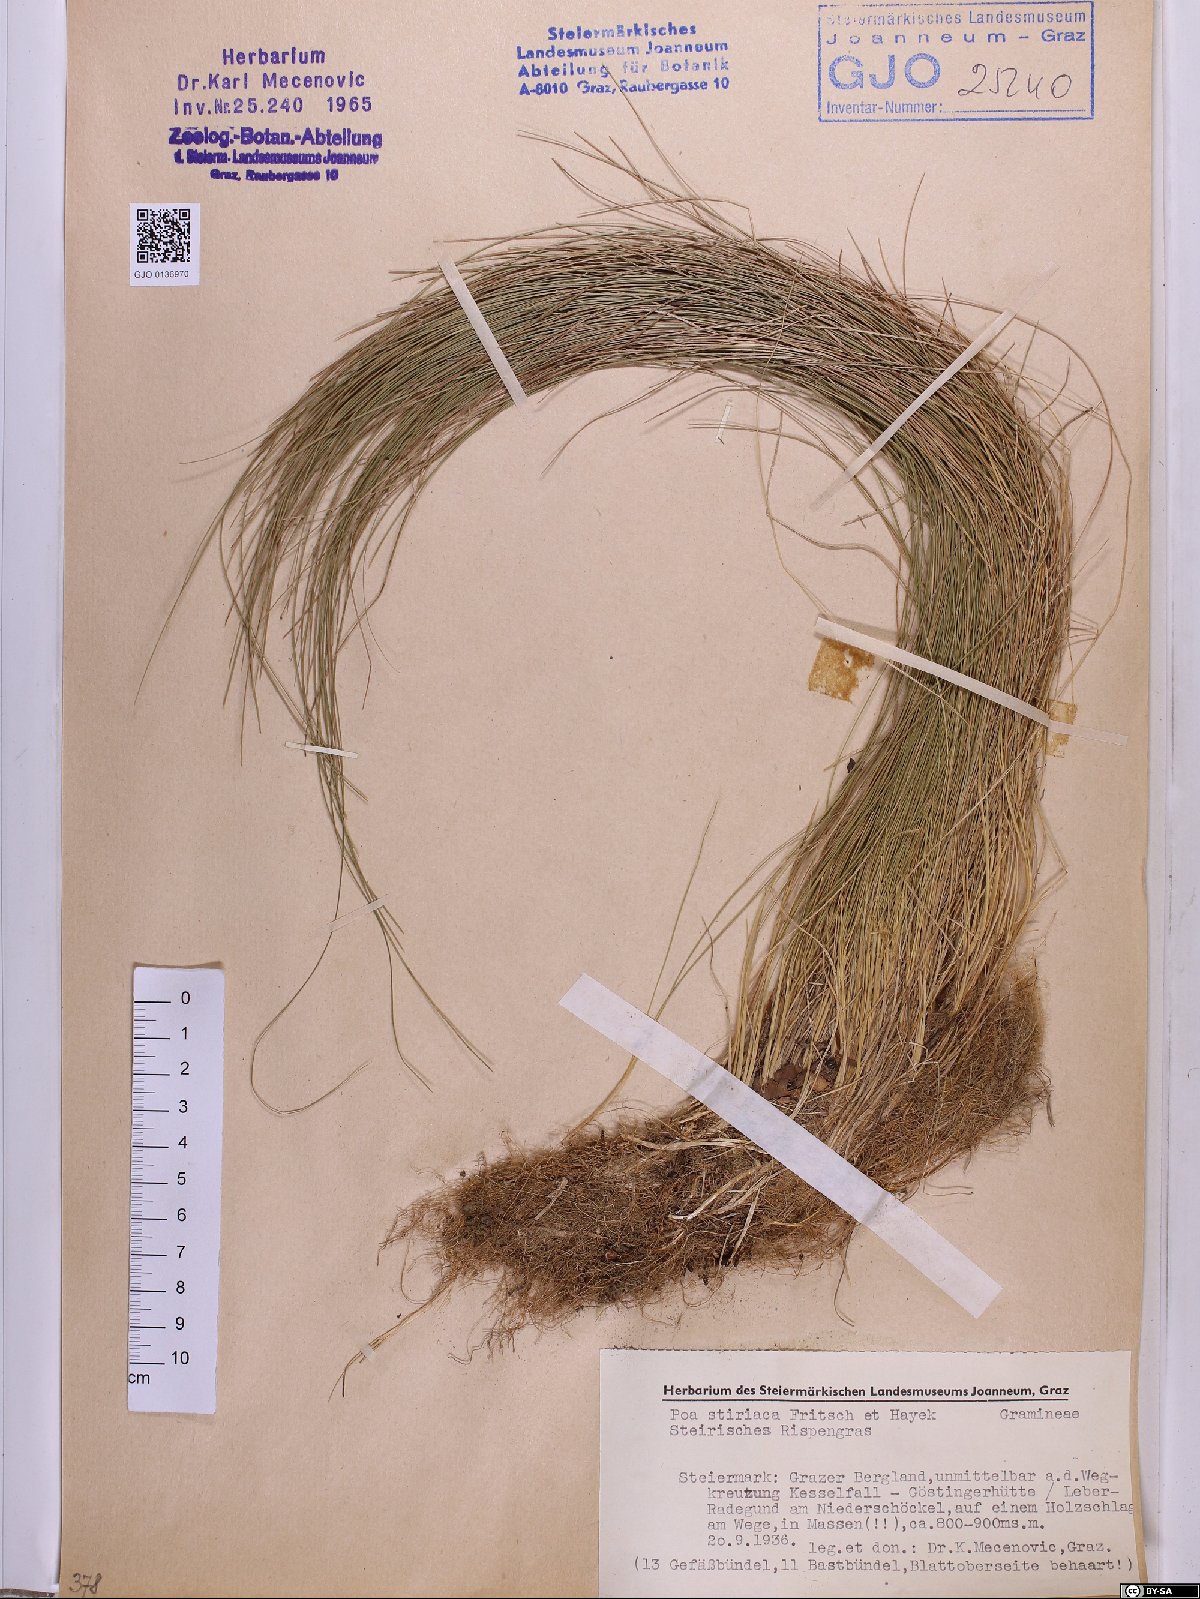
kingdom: Plantae
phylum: Tracheophyta
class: Liliopsida
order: Poales
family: Poaceae
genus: Poa
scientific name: Poa stiriaca
